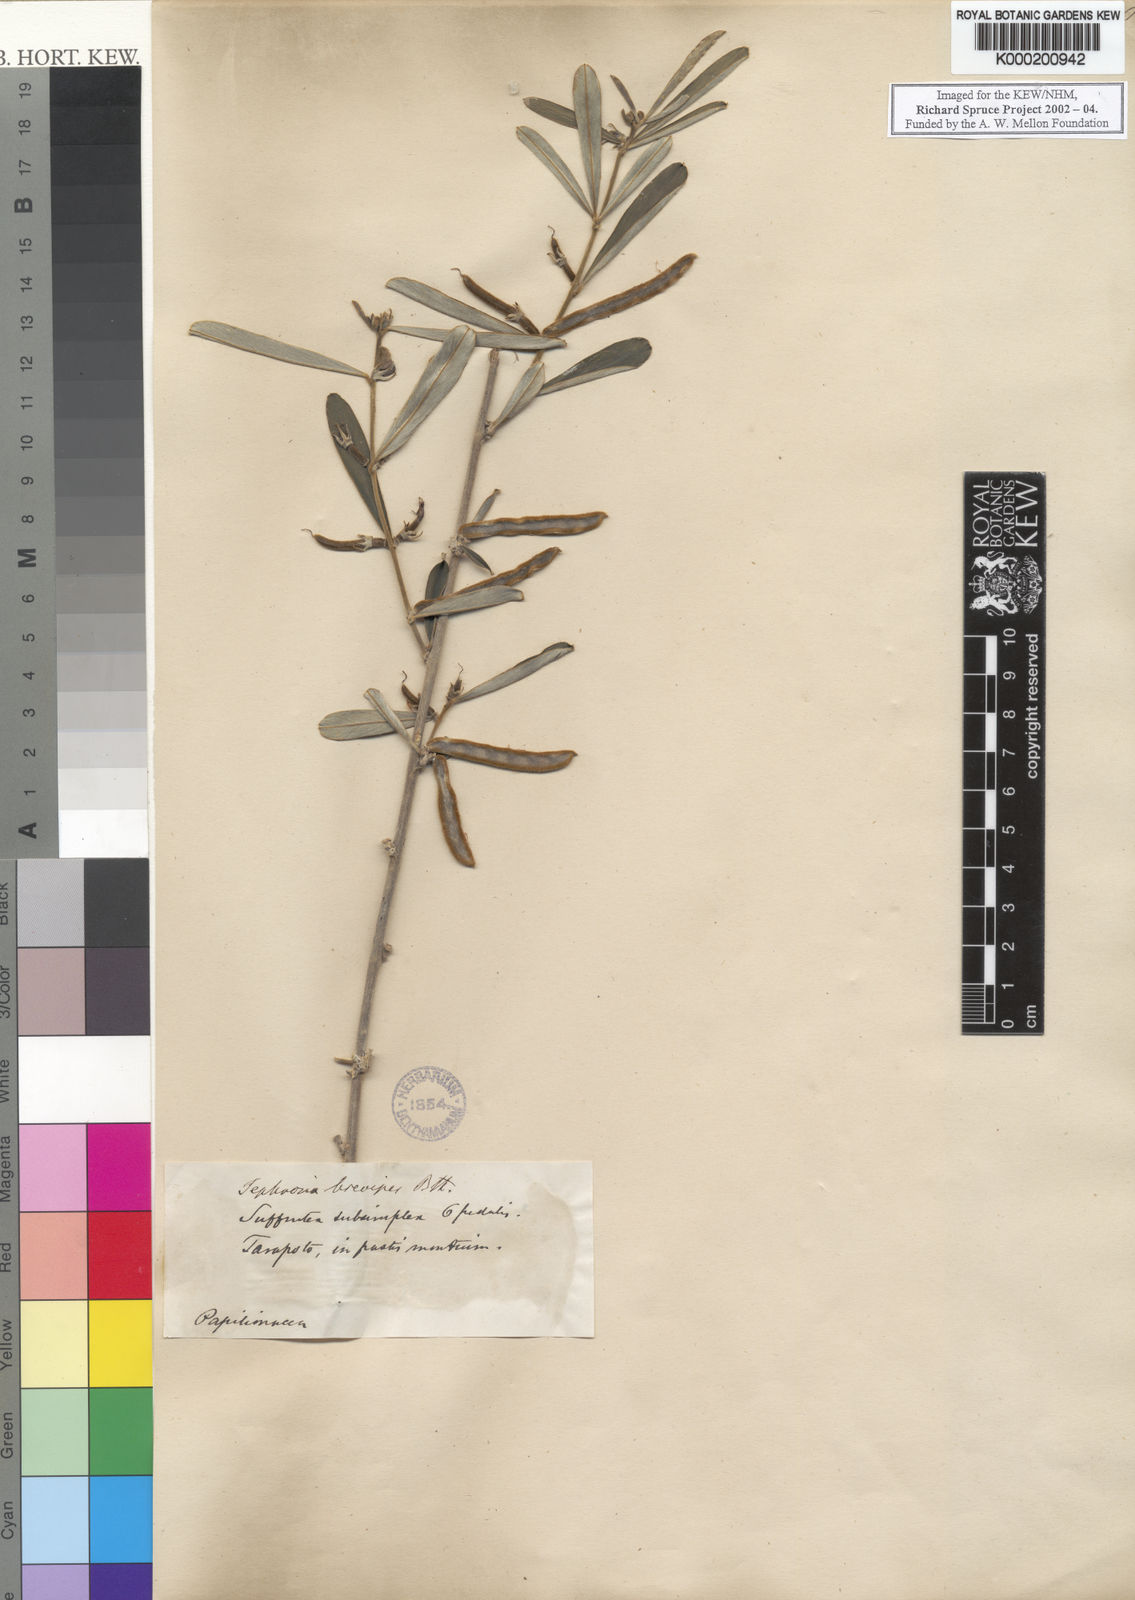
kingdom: Plantae
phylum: Tracheophyta
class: Magnoliopsida
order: Fabales
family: Fabaceae
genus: Tephrosia
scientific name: Tephrosia sessiliflora
